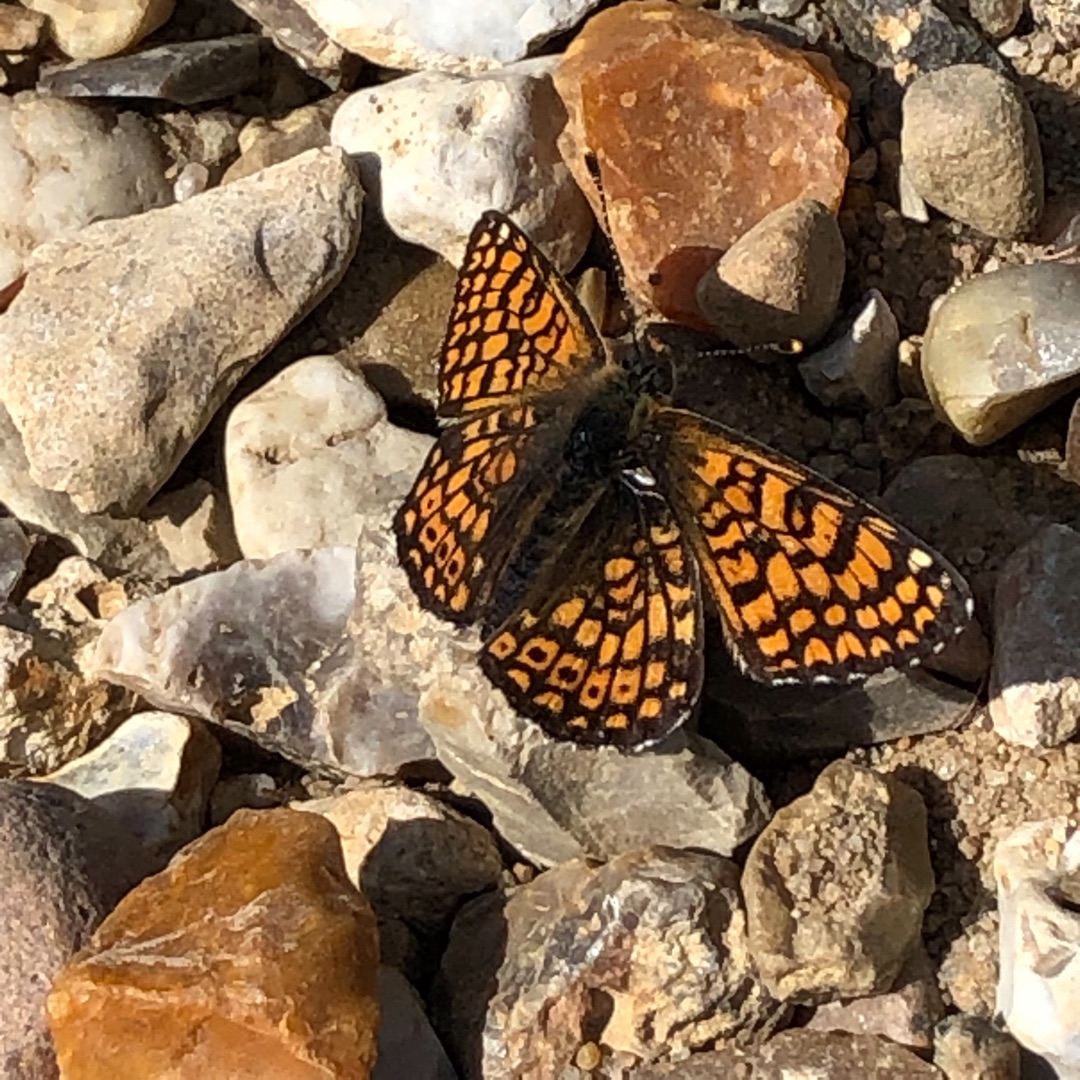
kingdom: Animalia
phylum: Arthropoda
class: Insecta
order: Lepidoptera
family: Nymphalidae
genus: Melitaea
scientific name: Melitaea cinxia
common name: Okkergul pletvinge
